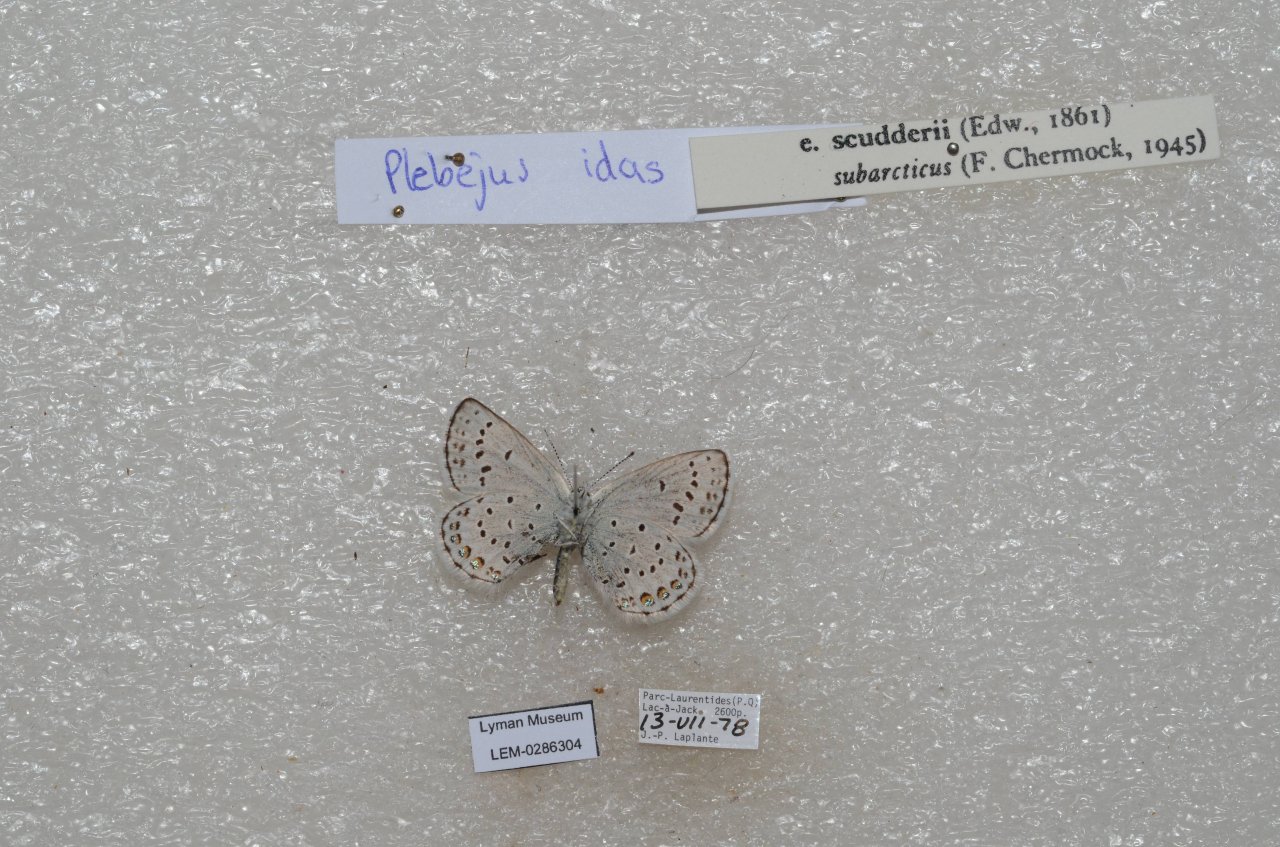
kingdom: Animalia
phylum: Arthropoda
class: Insecta
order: Lepidoptera
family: Lycaenidae
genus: Lycaeides
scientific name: Lycaeides idas
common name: Northern Blue
